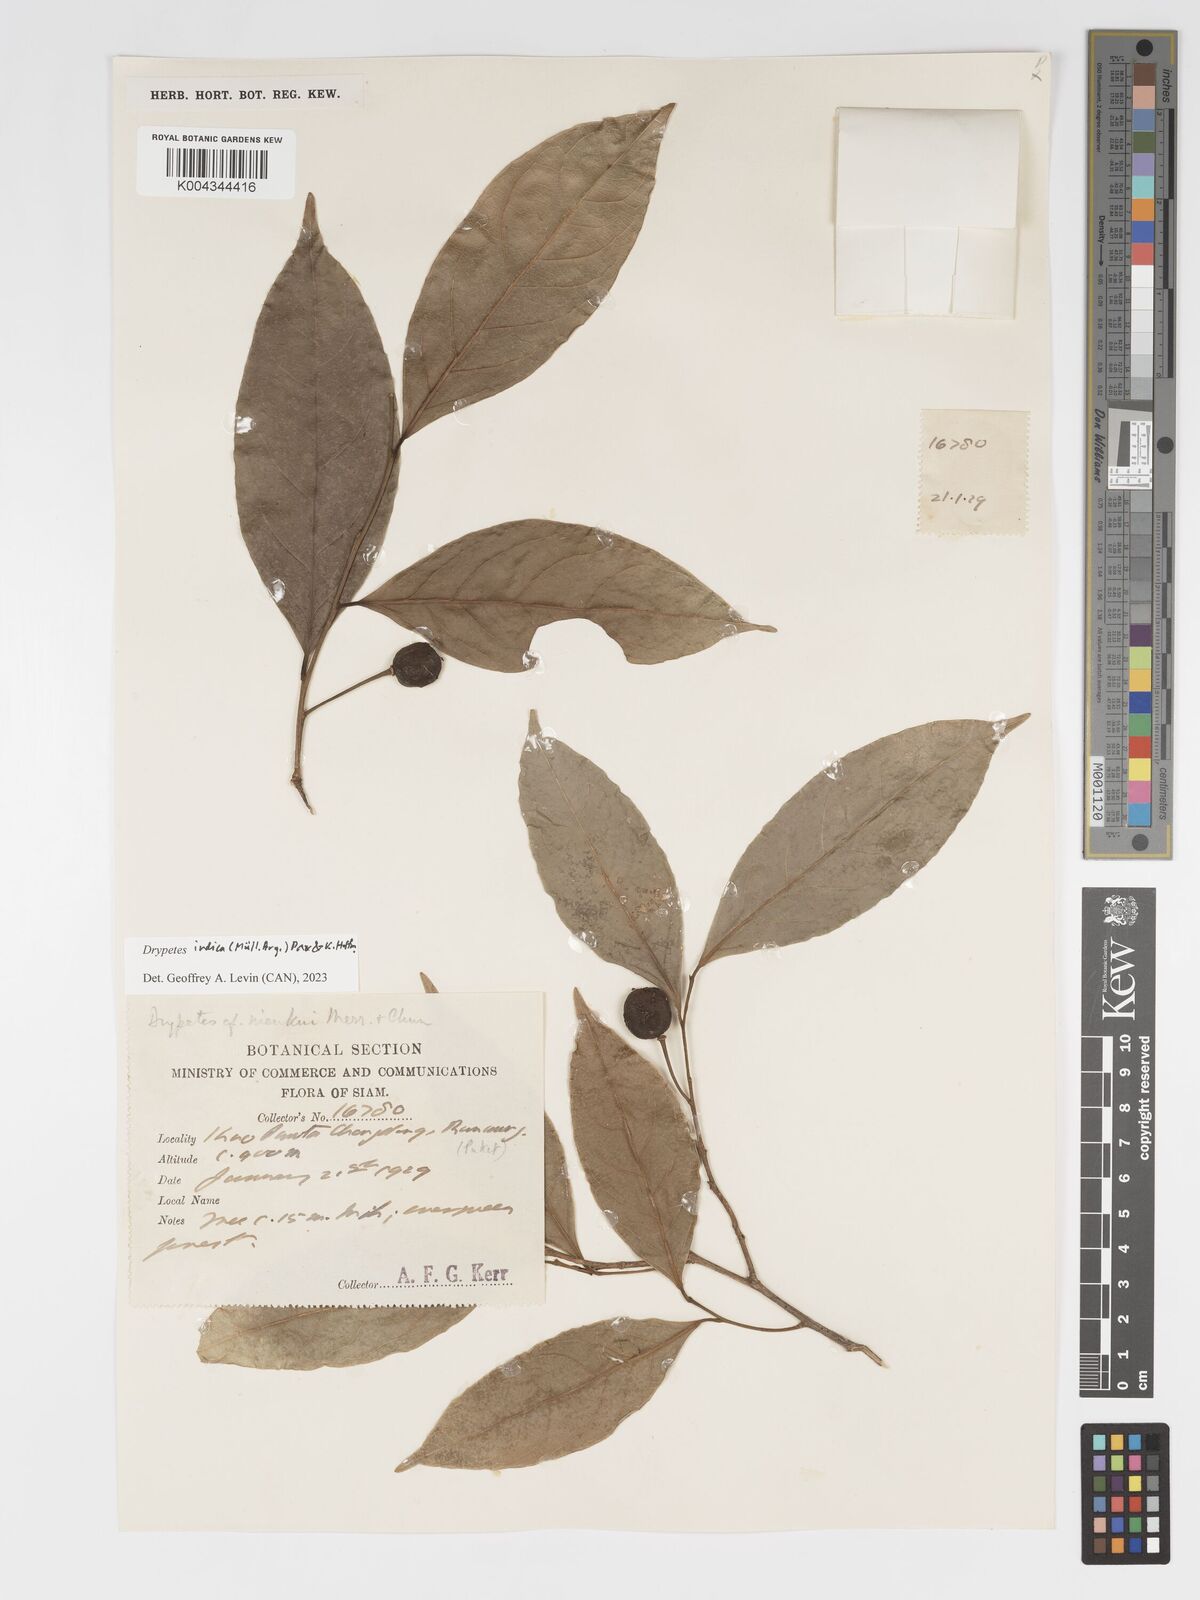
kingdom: Plantae
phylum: Tracheophyta
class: Magnoliopsida
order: Malpighiales
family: Putranjivaceae
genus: Drypetes
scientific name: Drypetes indica
